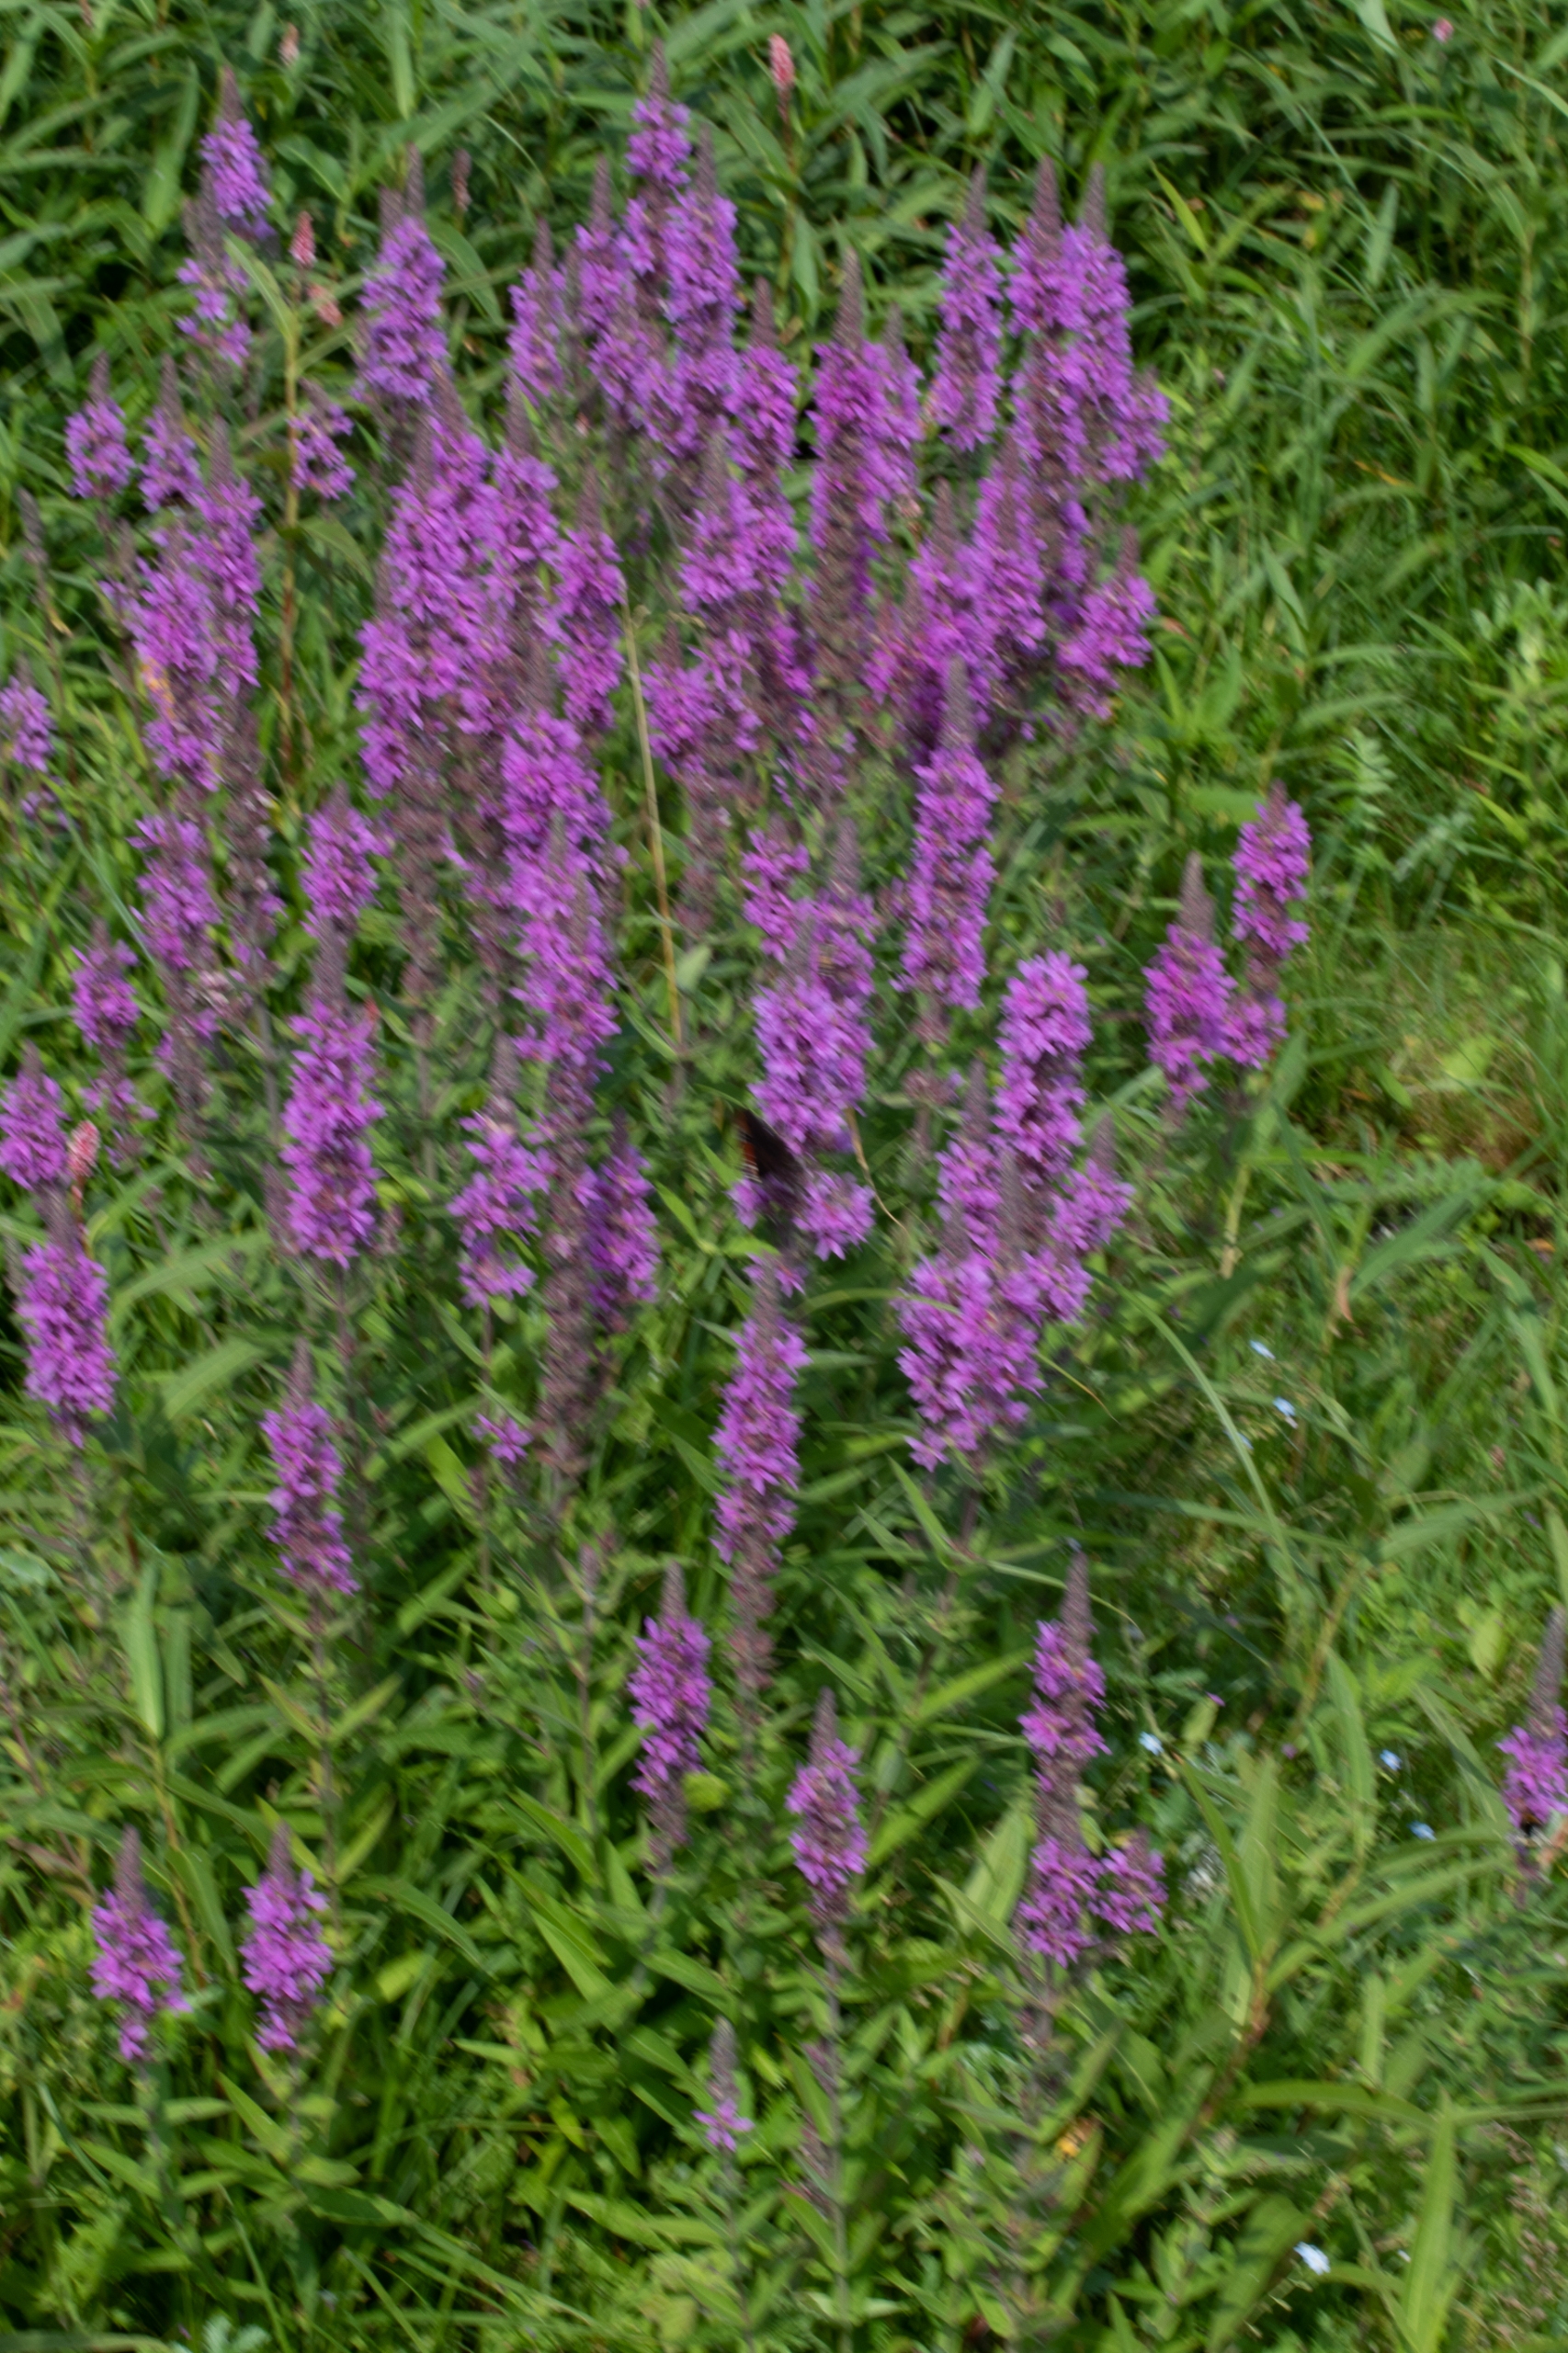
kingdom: Plantae
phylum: Tracheophyta
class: Magnoliopsida
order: Myrtales
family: Lythraceae
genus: Lythrum
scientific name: Lythrum salicaria
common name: Kattehale
